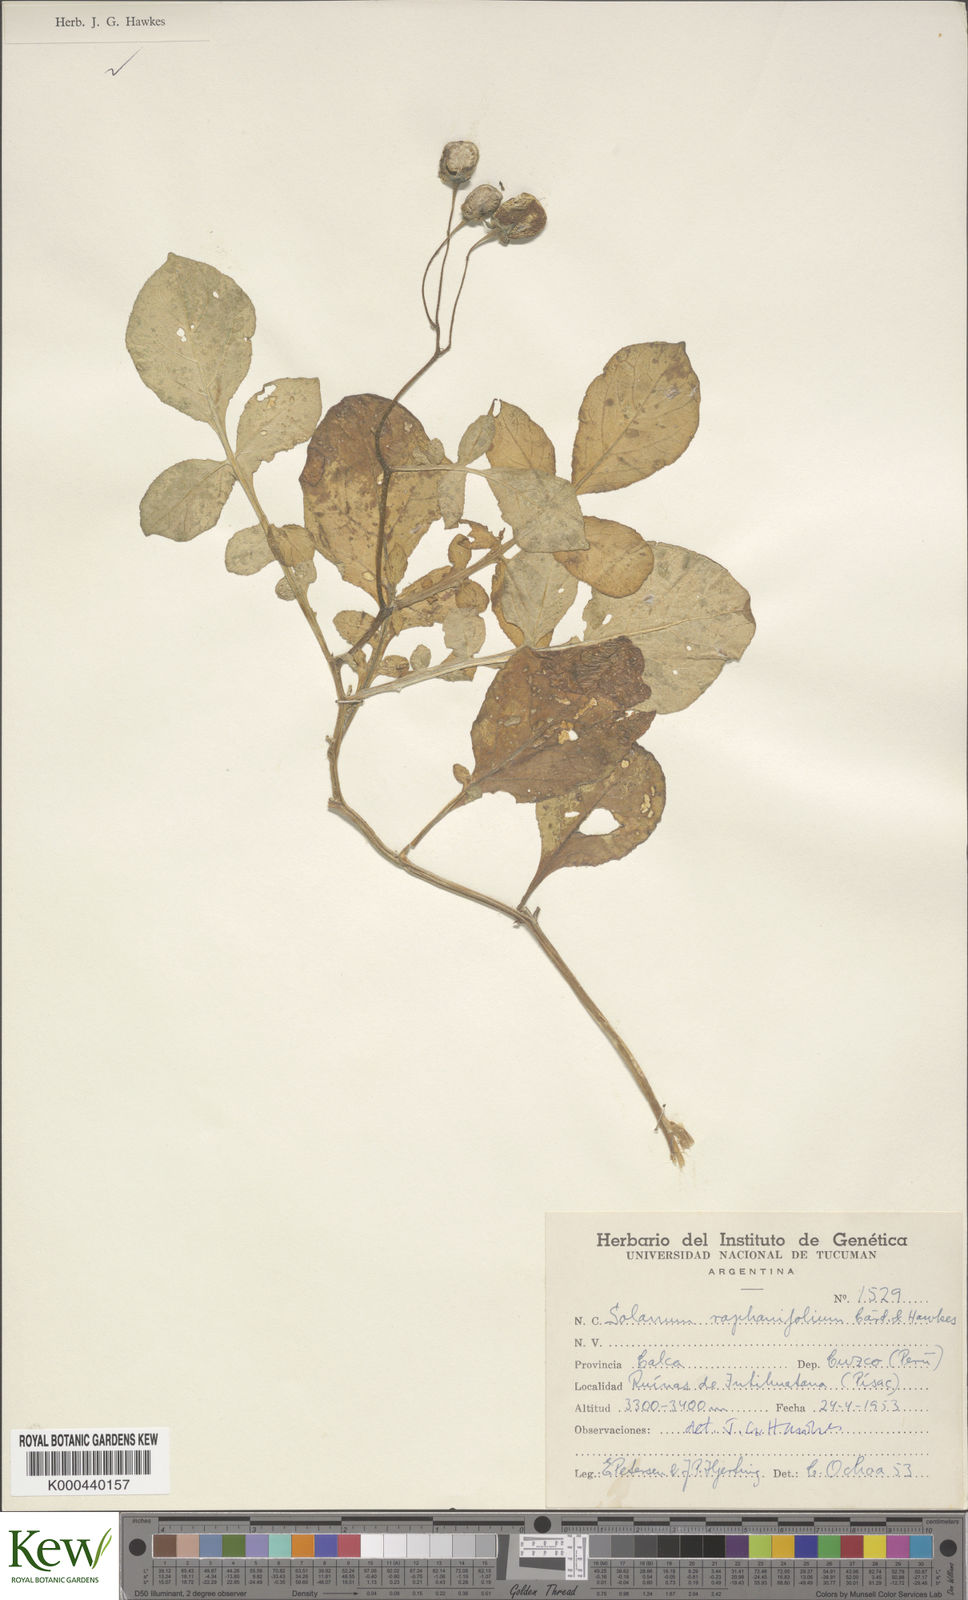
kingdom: Plantae
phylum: Tracheophyta
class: Magnoliopsida
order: Solanales
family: Solanaceae
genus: Solanum
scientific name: Solanum raphanifolium
